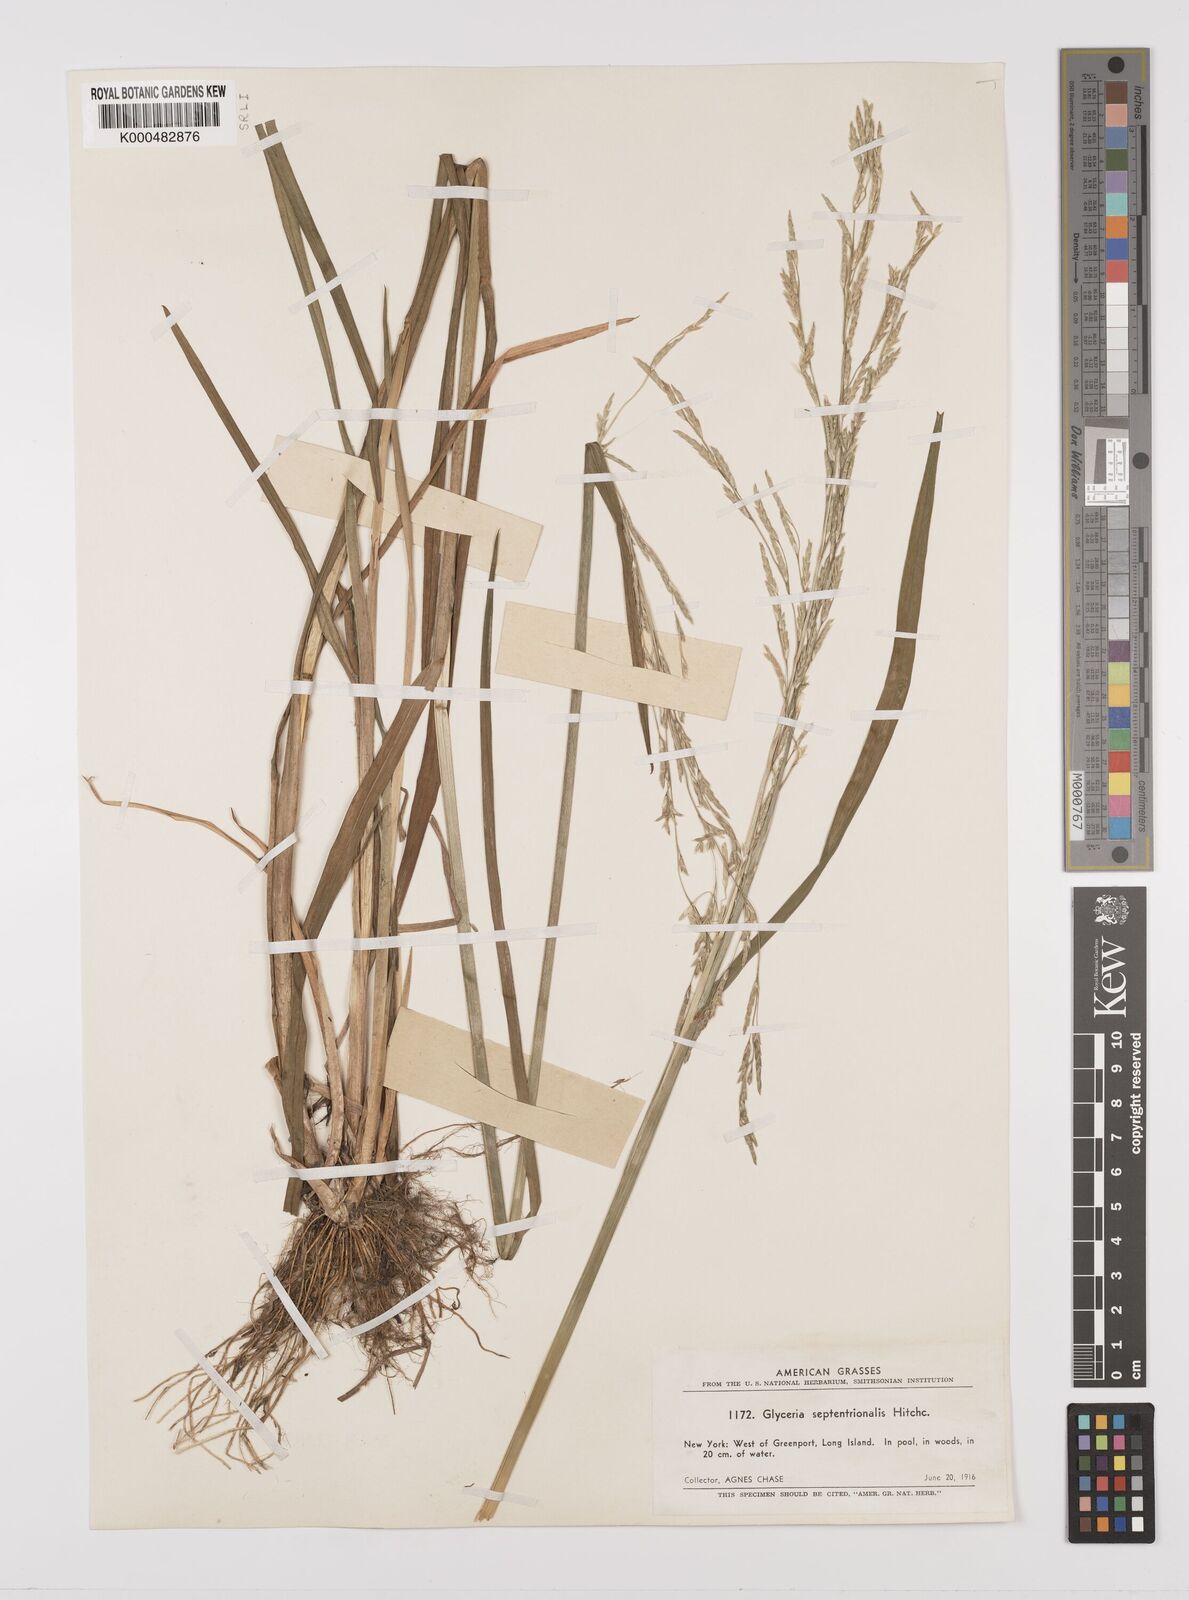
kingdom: Plantae
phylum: Tracheophyta
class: Liliopsida
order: Poales
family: Poaceae
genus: Glyceria
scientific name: Glyceria septentrionalis
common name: Eastern mannagrass
